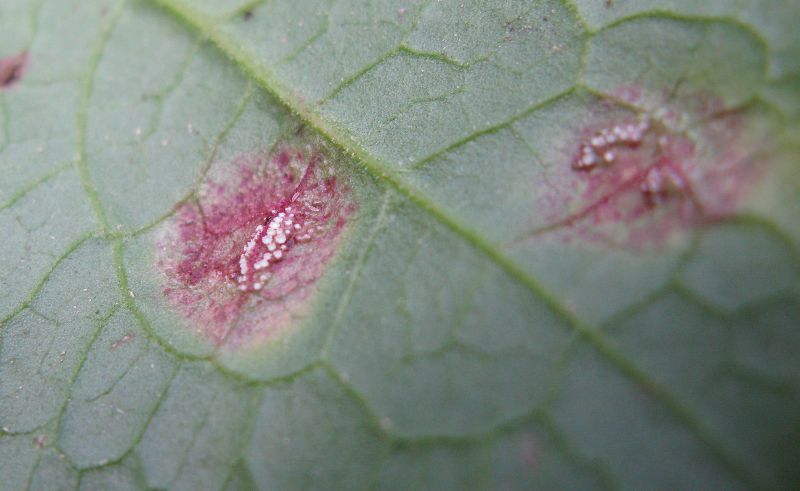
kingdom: Fungi
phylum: Basidiomycota
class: Pucciniomycetes
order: Pucciniales
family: Pucciniaceae
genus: Puccinia
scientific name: Puccinia phragmitis
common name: tagrør-tvecellerust
